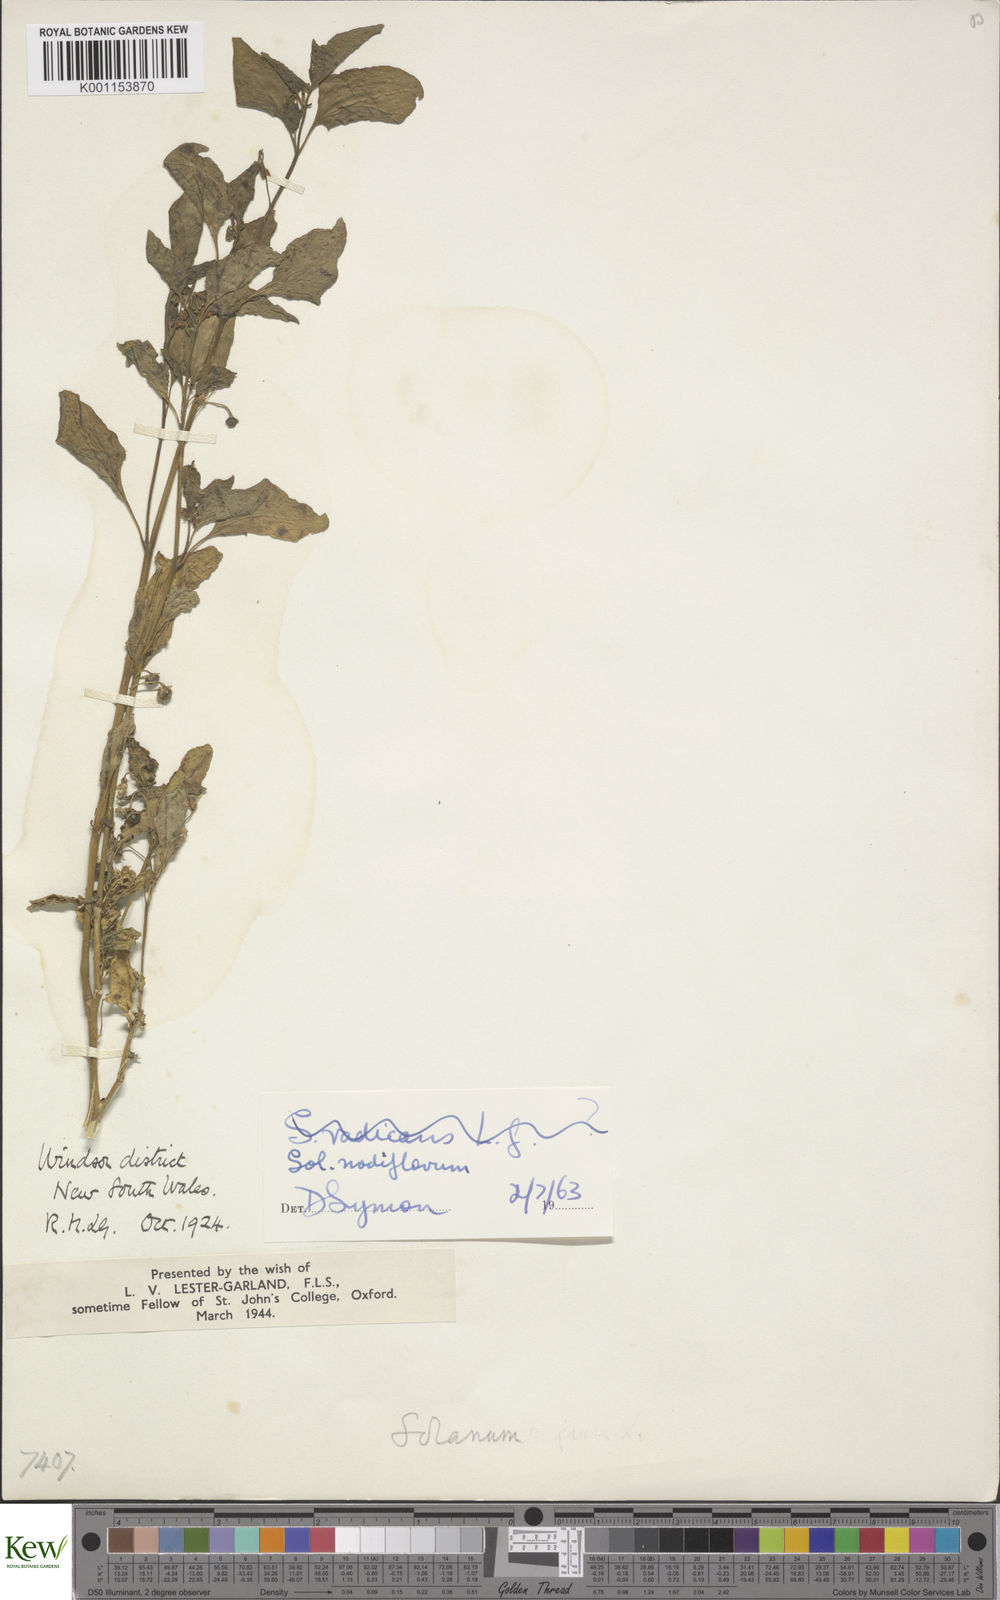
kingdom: Plantae
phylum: Tracheophyta
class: Magnoliopsida
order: Solanales
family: Solanaceae
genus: Solanum
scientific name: Solanum americanum
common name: American black nightshade
